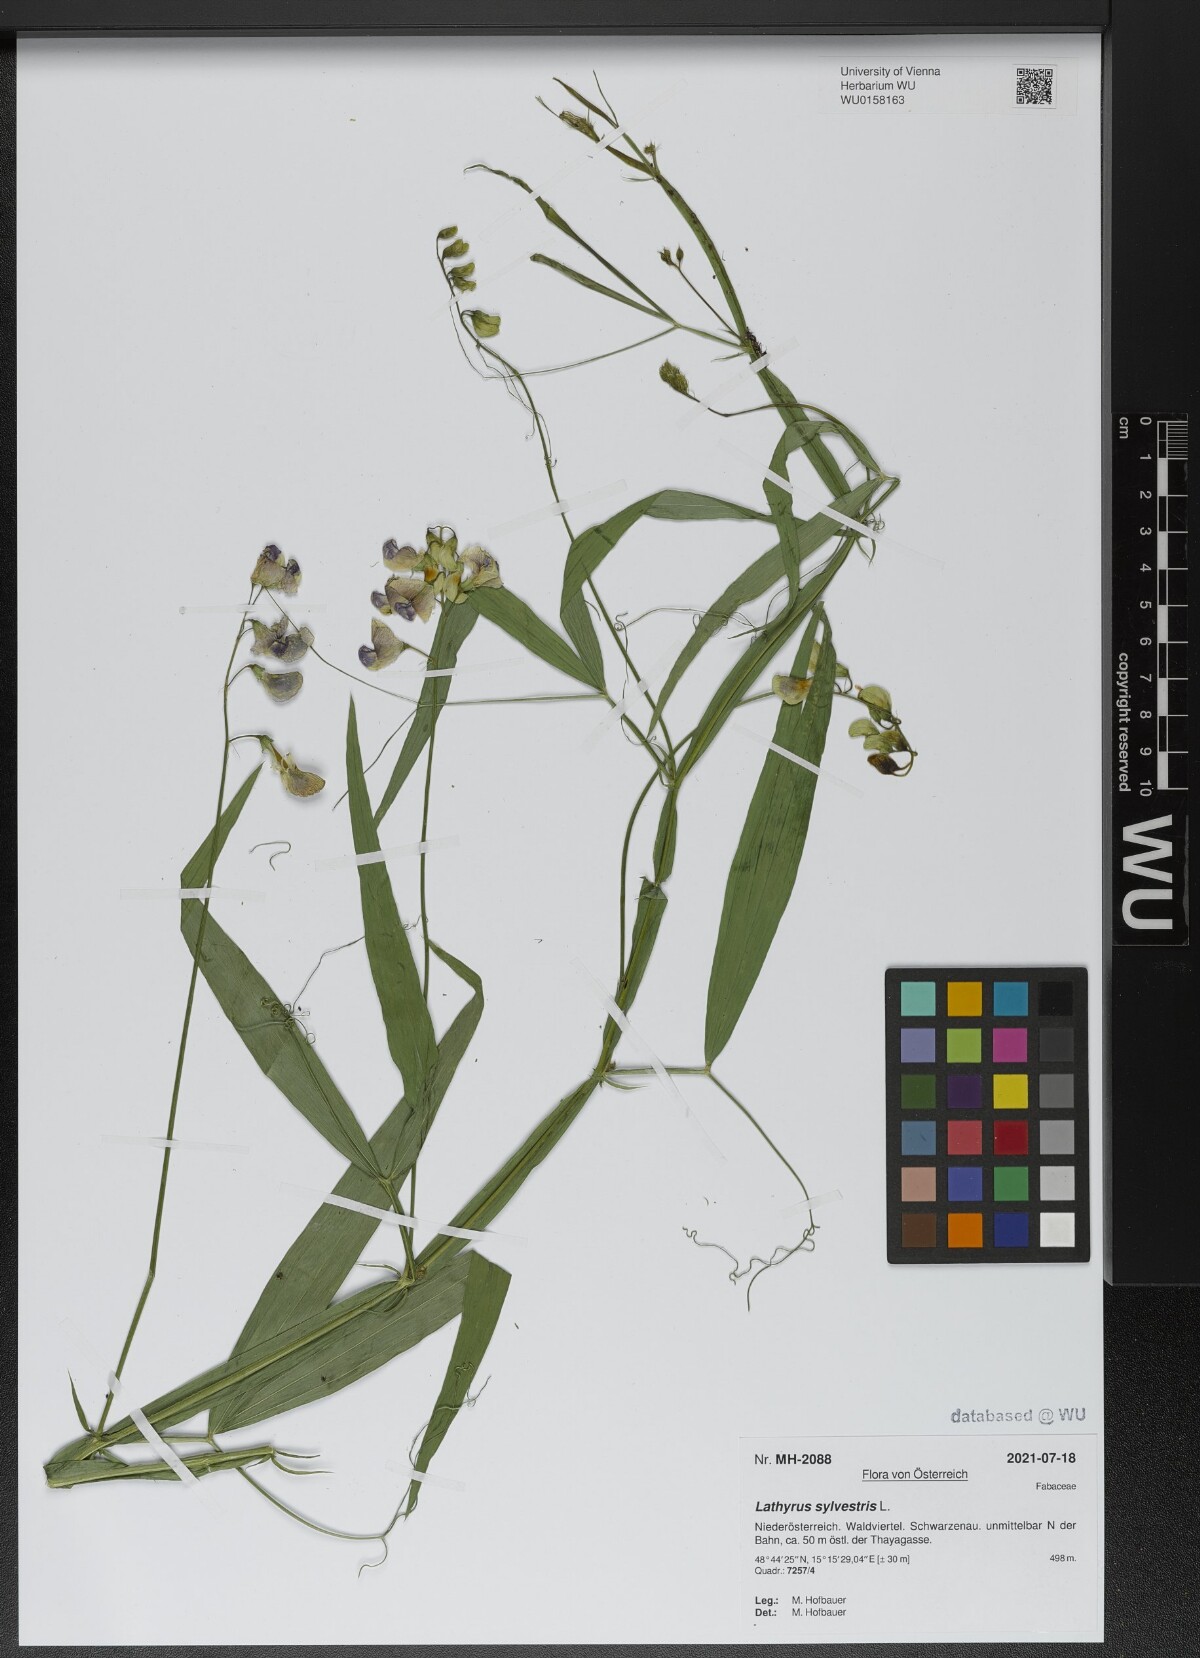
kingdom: Plantae
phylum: Tracheophyta
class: Magnoliopsida
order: Fabales
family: Fabaceae
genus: Lathyrus
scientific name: Lathyrus sylvestris
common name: Flat pea
